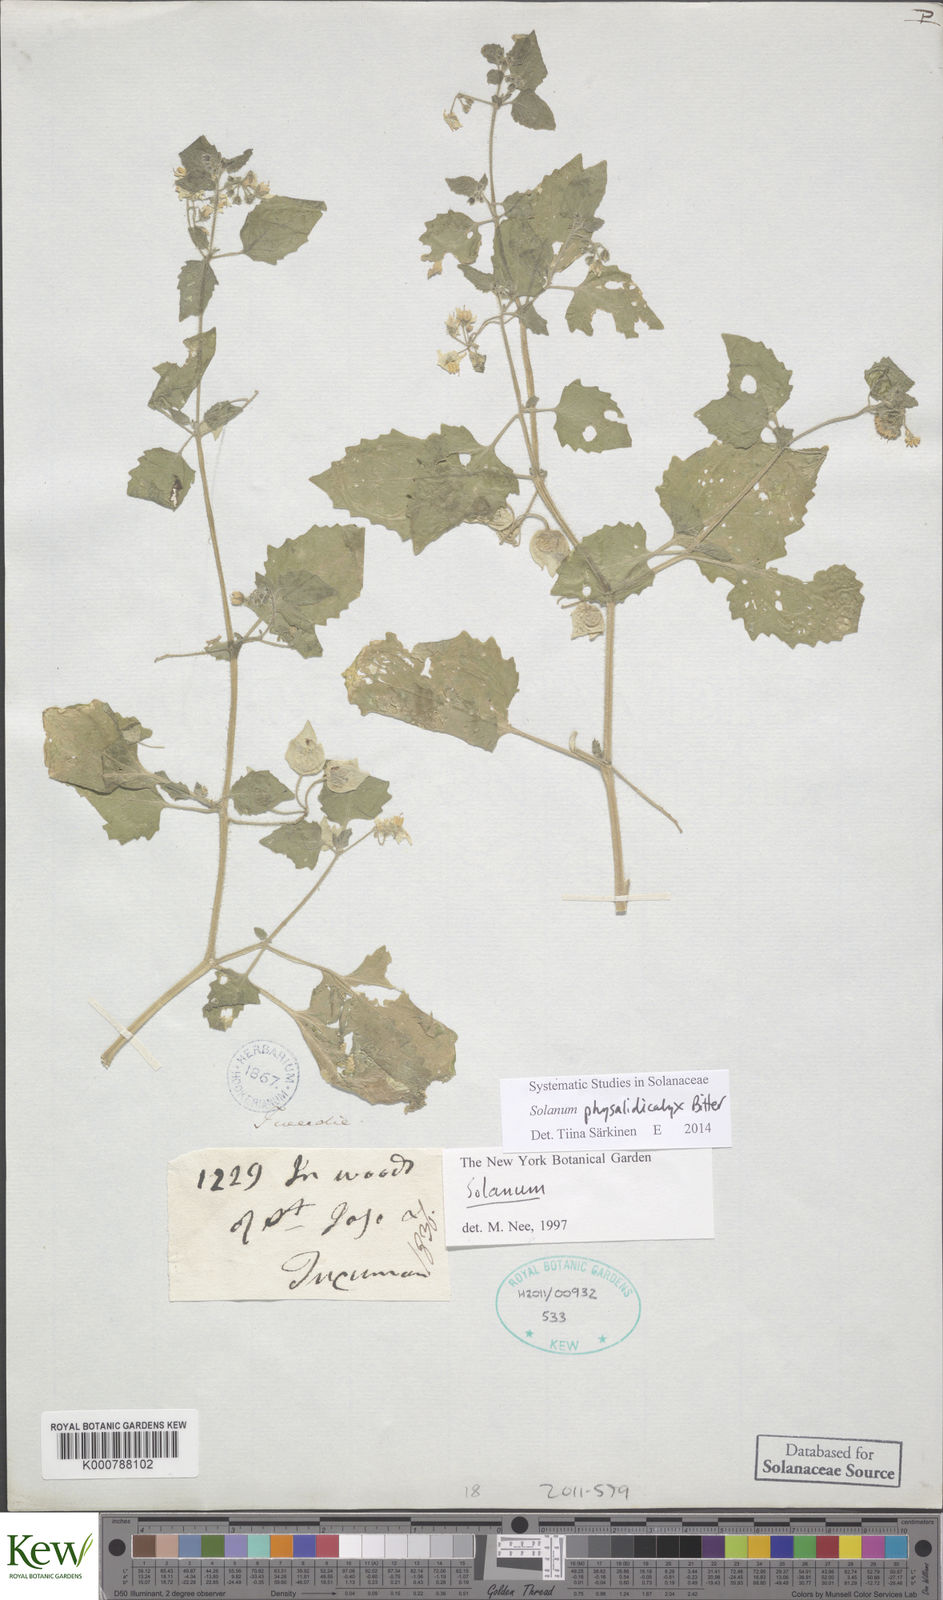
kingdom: Plantae
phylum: Tracheophyta
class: Magnoliopsida
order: Solanales
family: Solanaceae
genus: Solanum
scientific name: Solanum physalidicalyx
